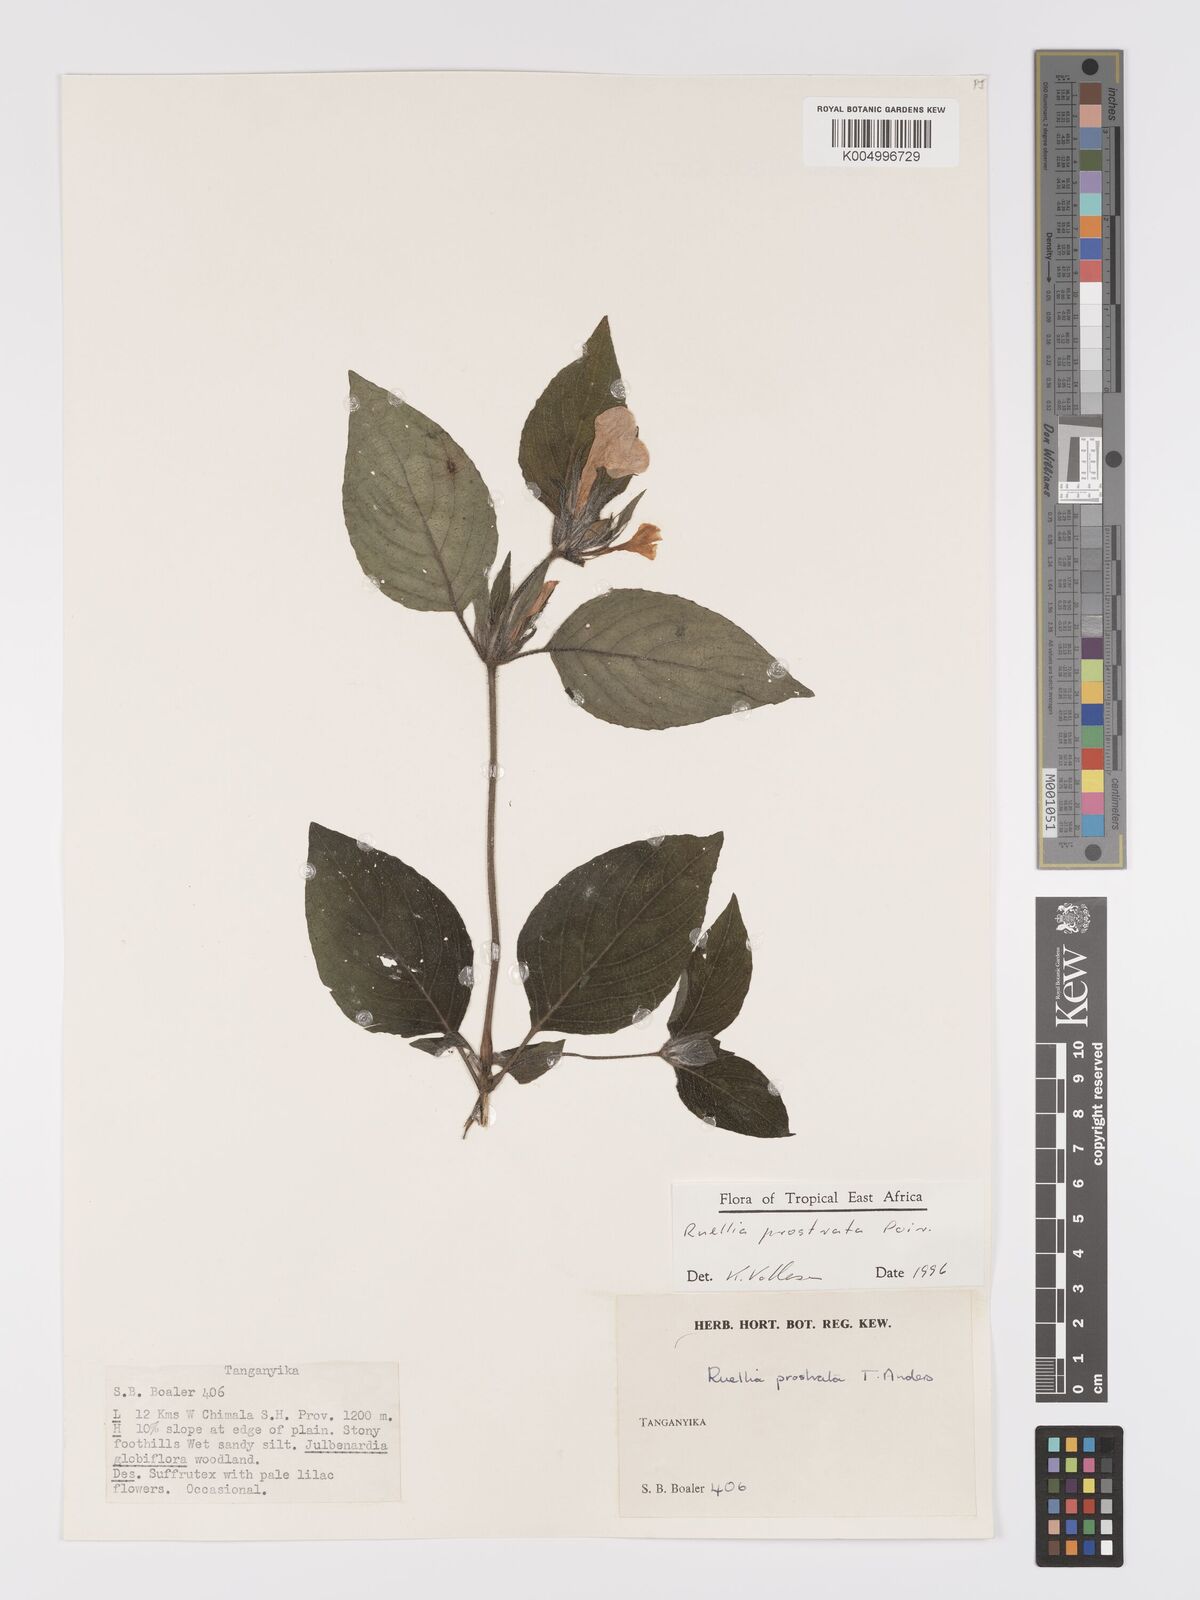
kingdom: Plantae
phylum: Tracheophyta
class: Magnoliopsida
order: Lamiales
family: Acanthaceae
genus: Ruellia
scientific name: Ruellia
